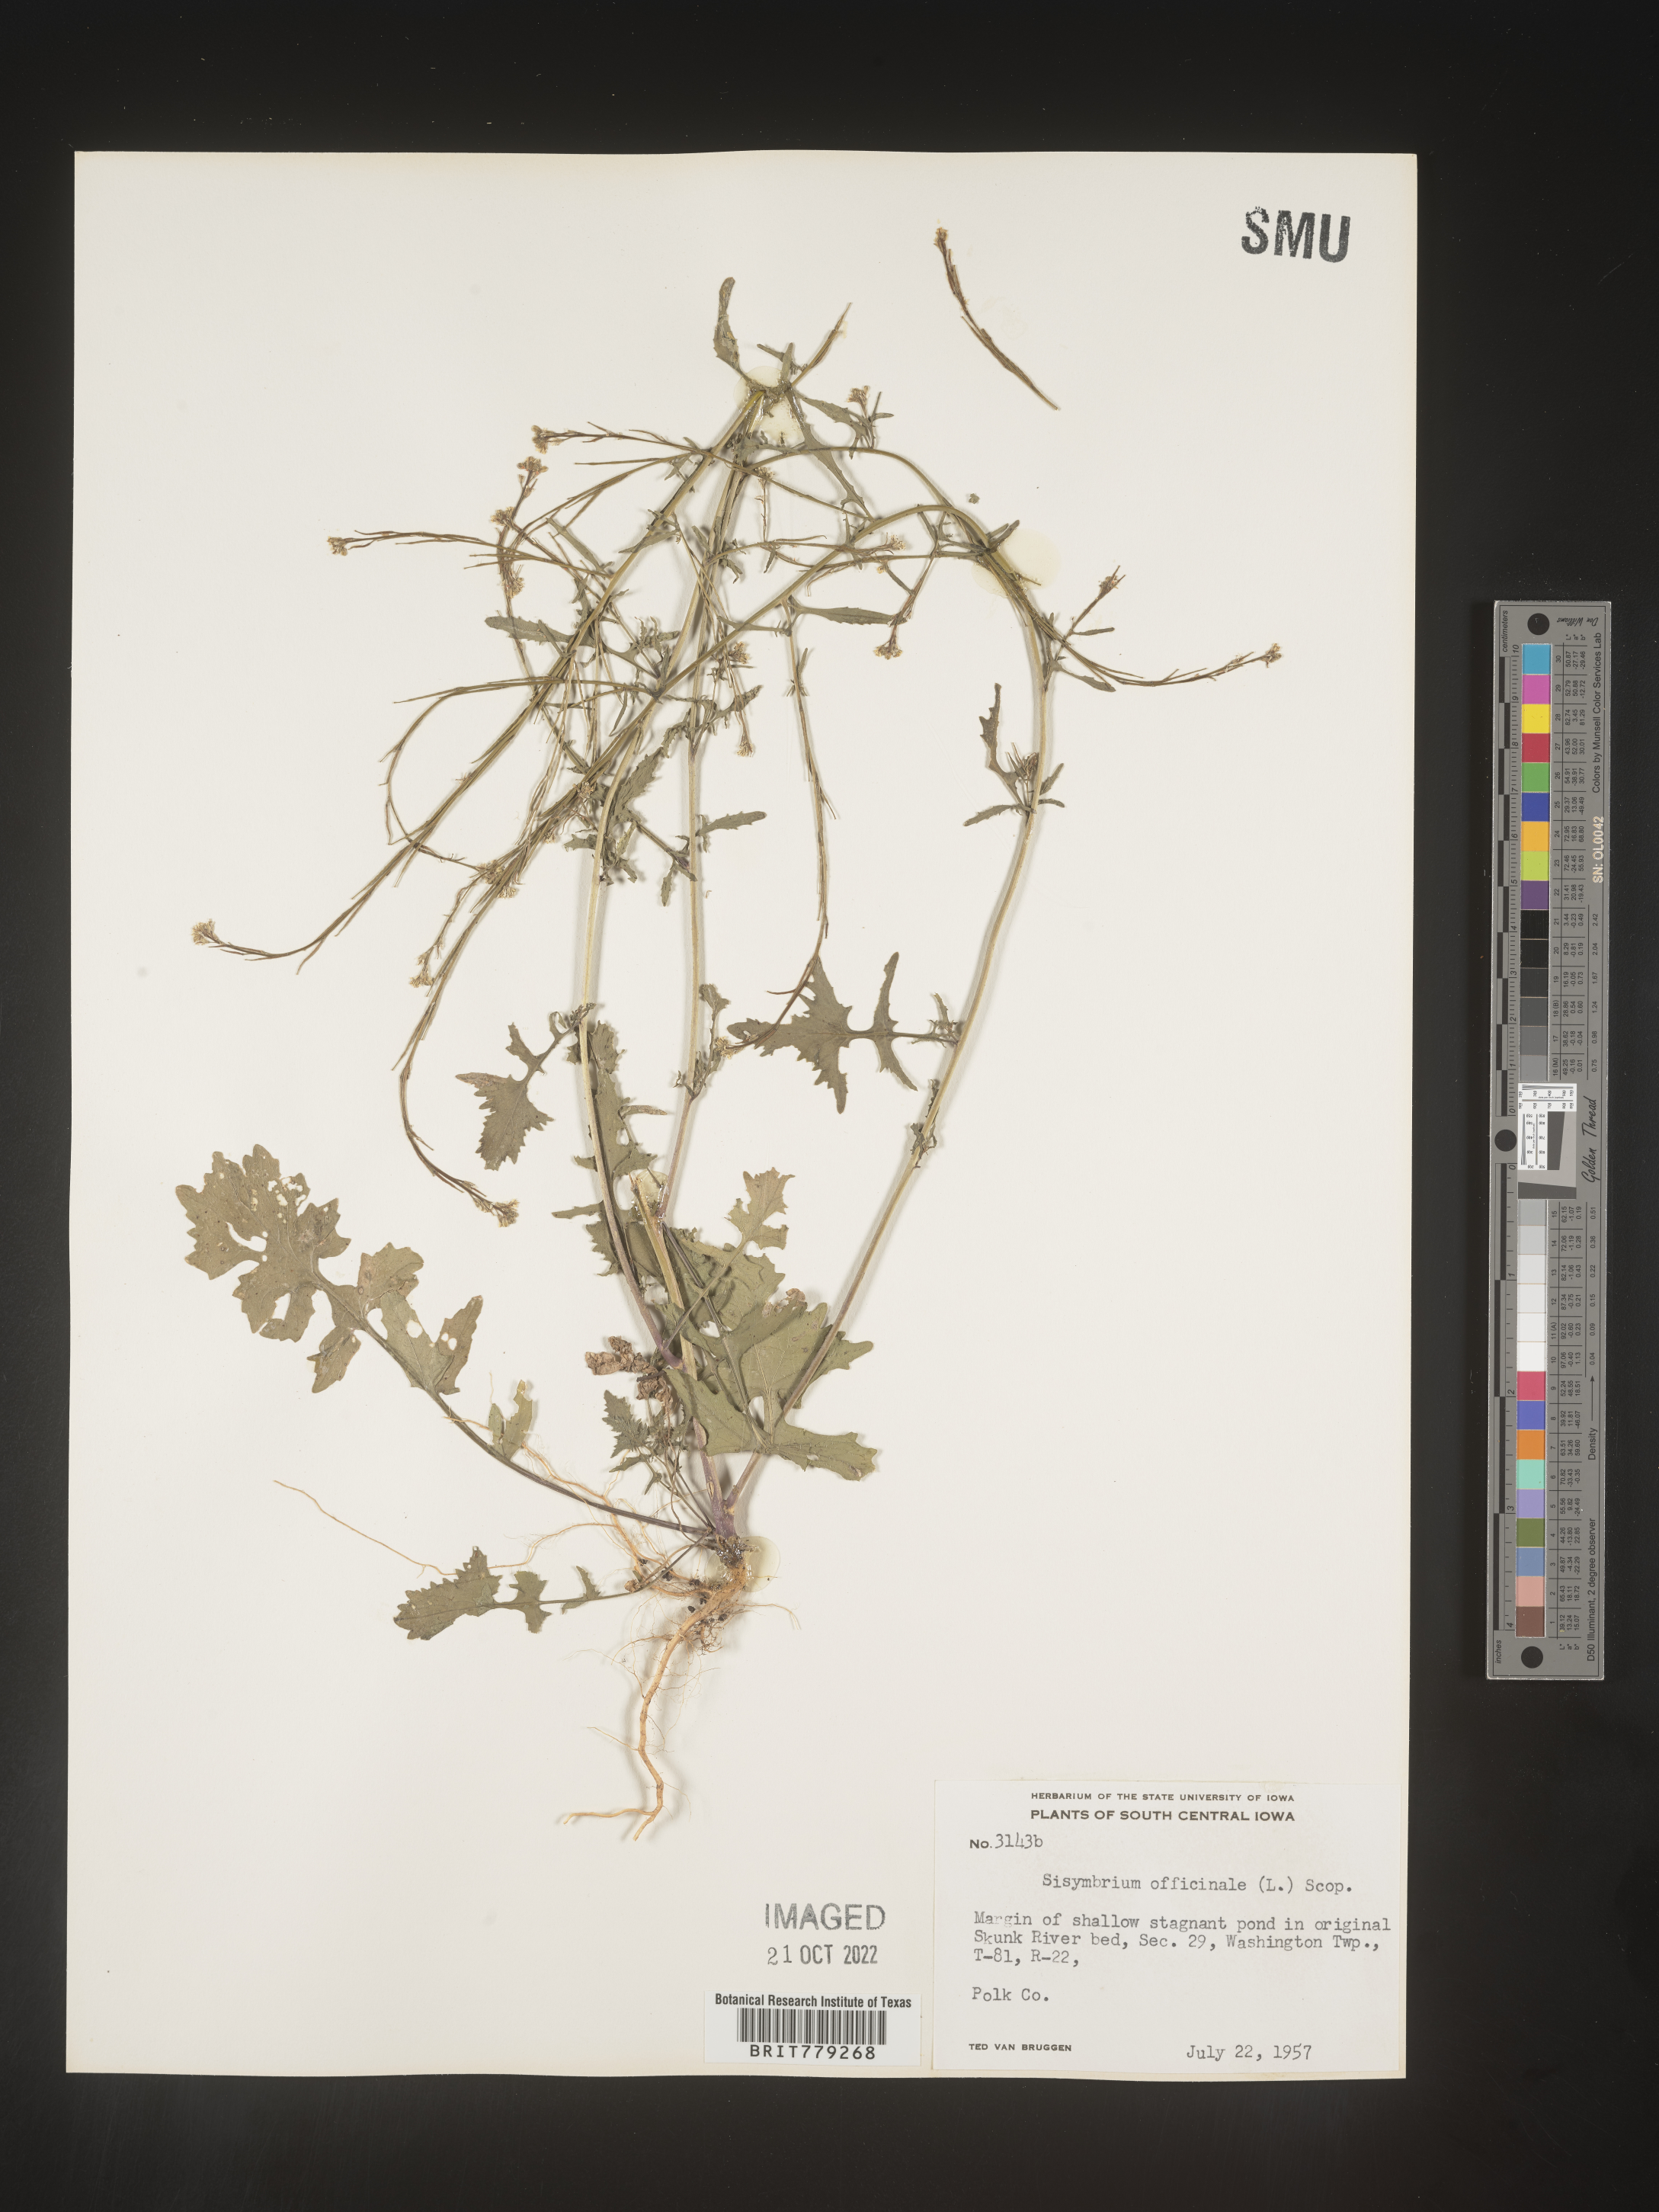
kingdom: Plantae
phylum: Tracheophyta
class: Magnoliopsida
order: Brassicales
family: Brassicaceae
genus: Sisymbrium
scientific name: Sisymbrium officinale
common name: Hedge mustard
